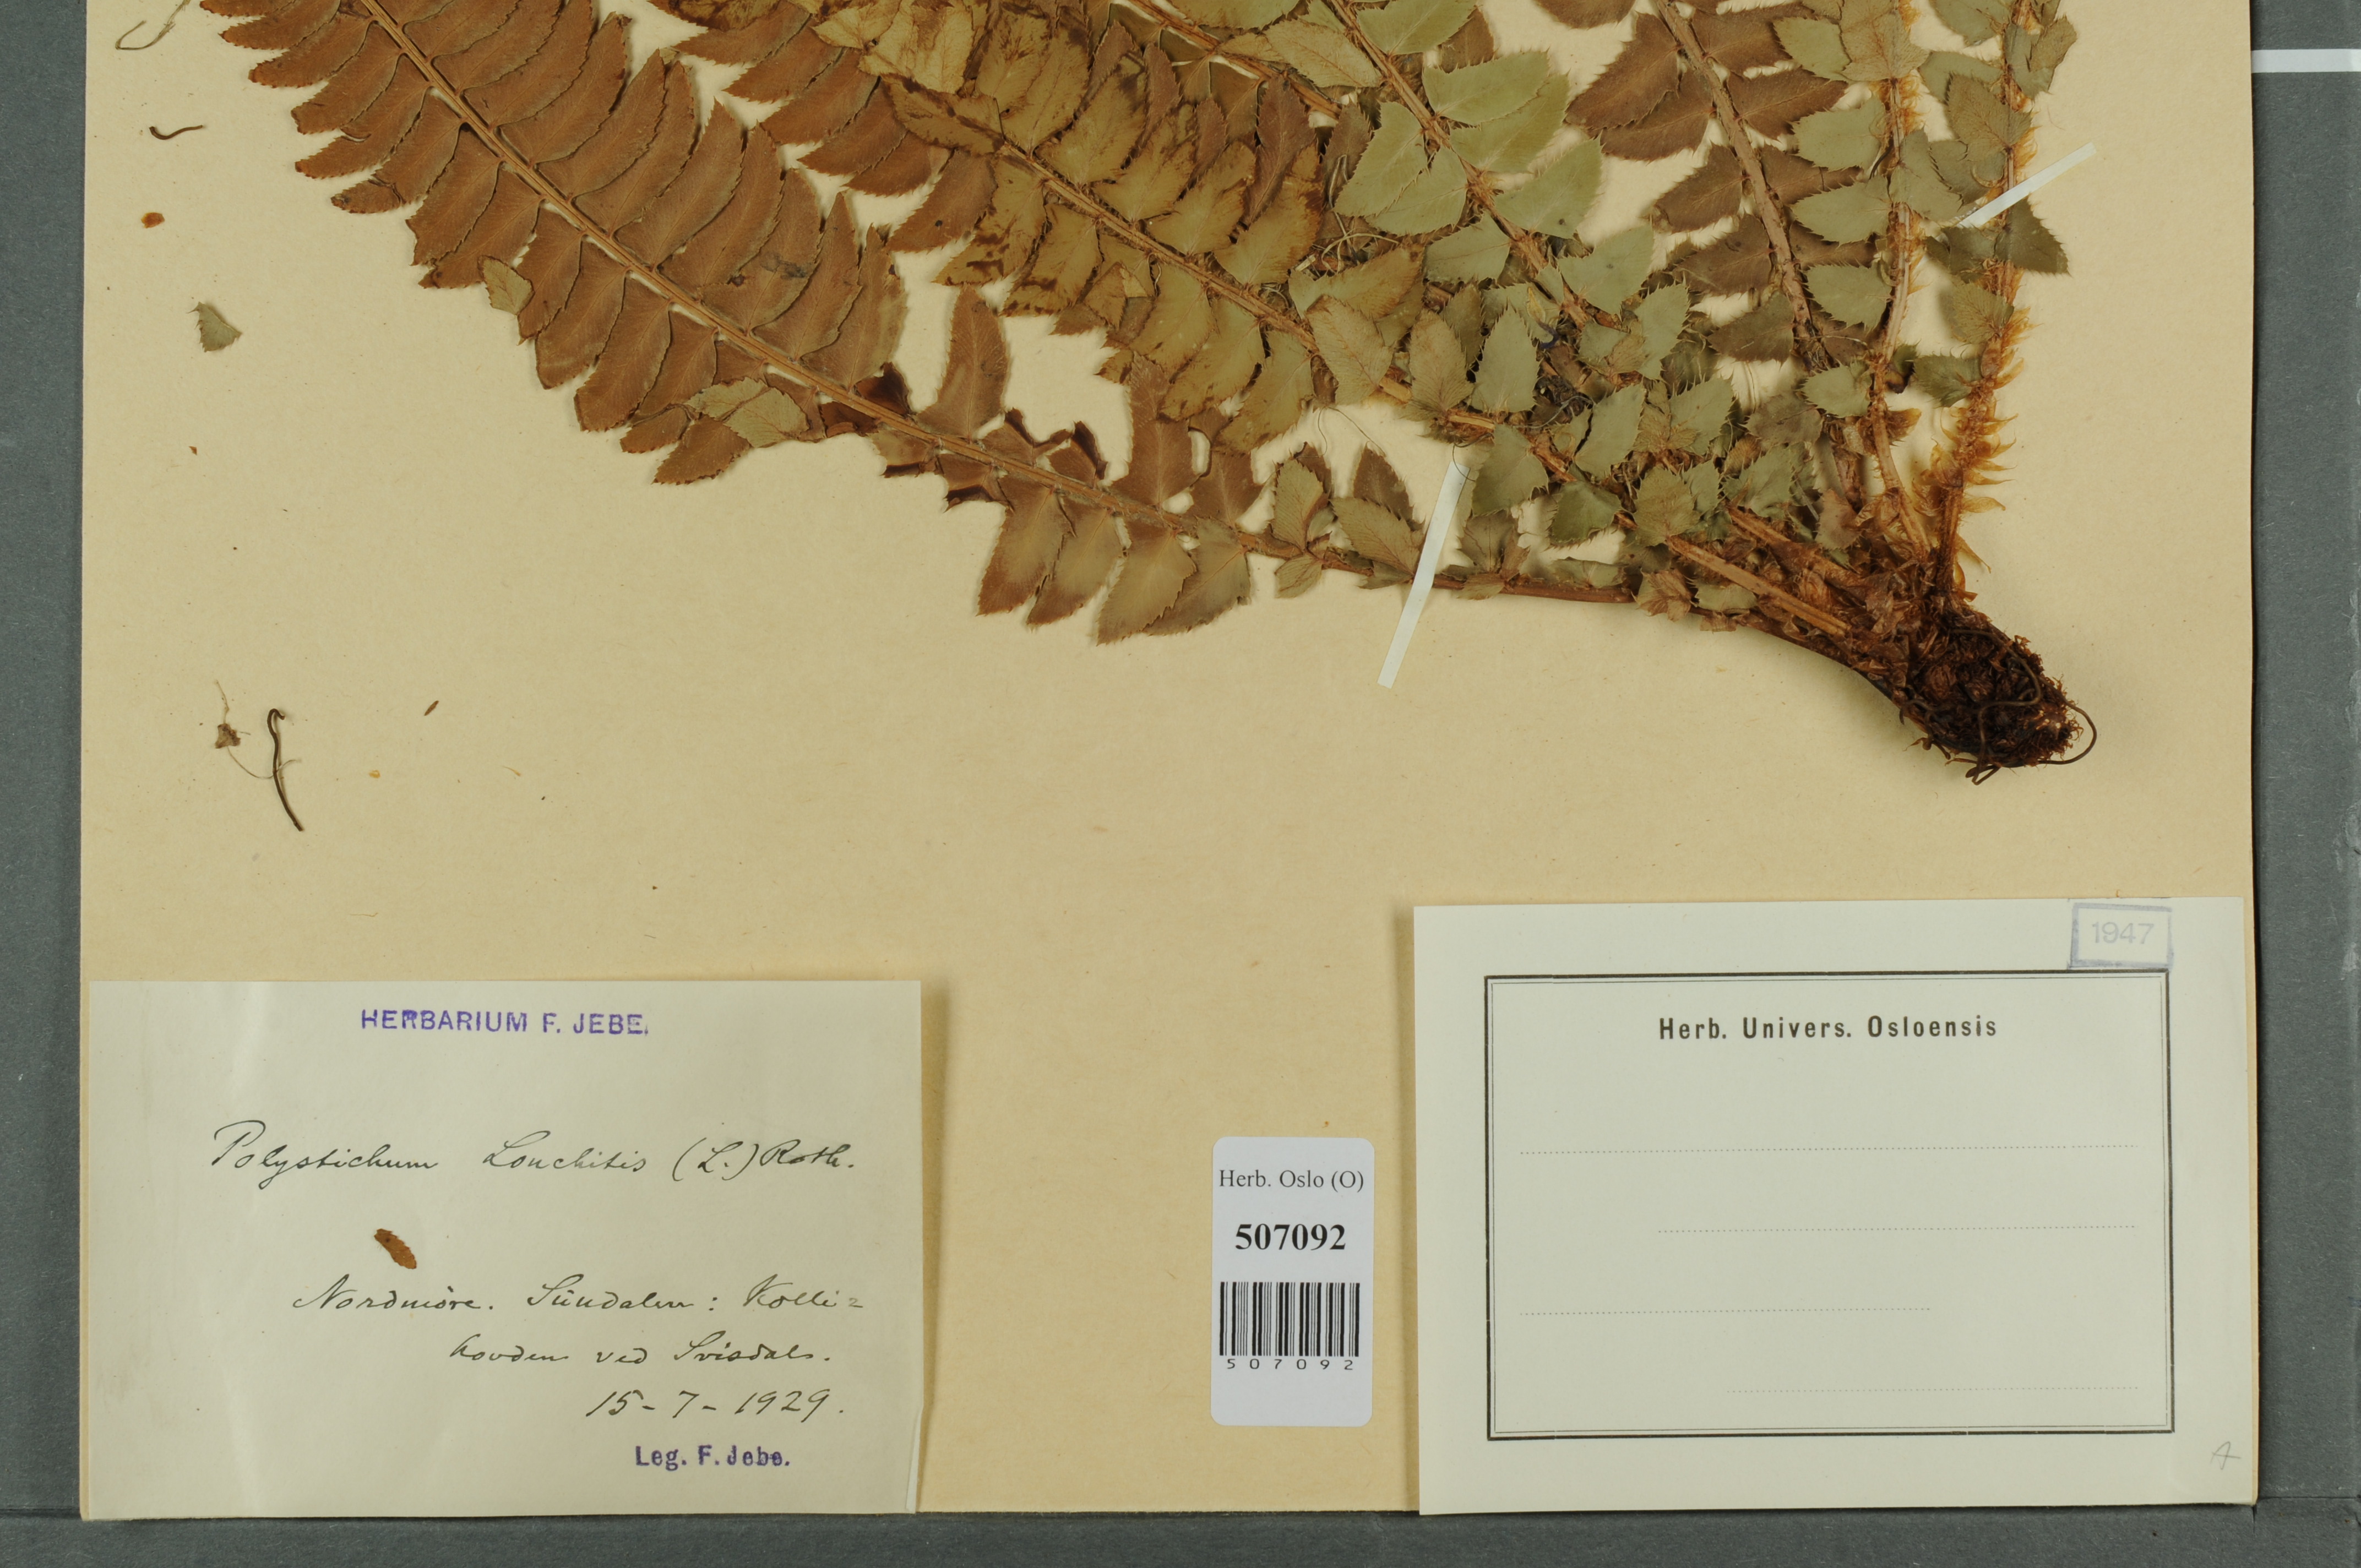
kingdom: Plantae
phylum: Tracheophyta
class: Polypodiopsida
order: Polypodiales
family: Dryopteridaceae
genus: Polystichum
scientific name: Polystichum lonchitis
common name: Holly fern
